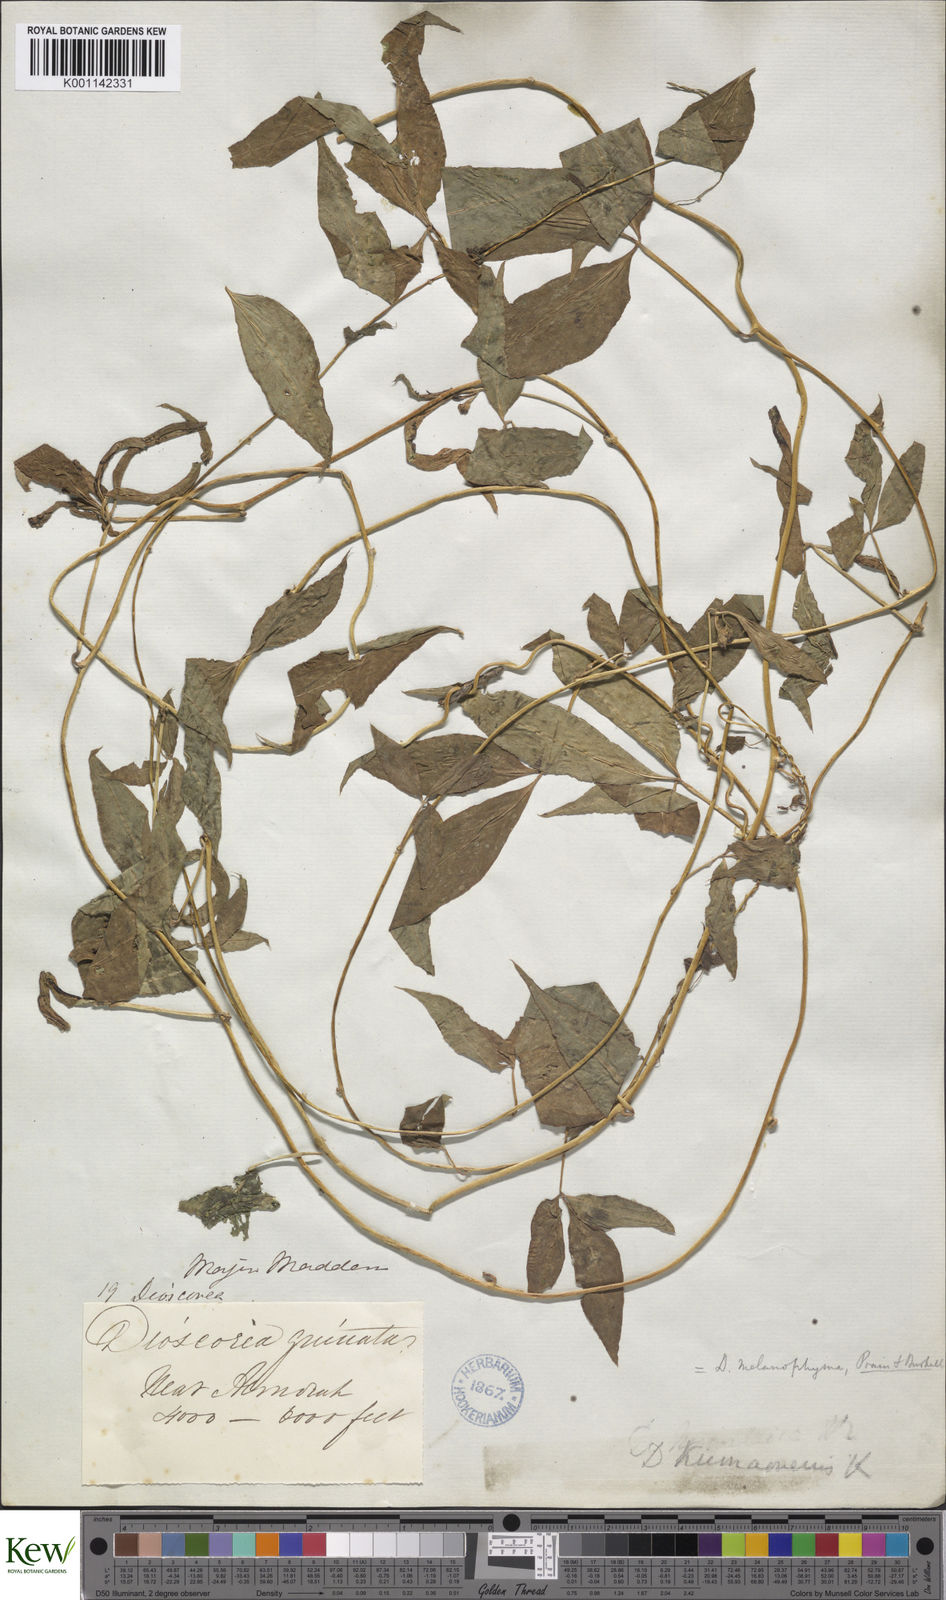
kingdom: Plantae
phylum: Tracheophyta
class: Liliopsida
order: Dioscoreales
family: Dioscoreaceae
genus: Dioscorea
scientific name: Dioscorea melanophyma
